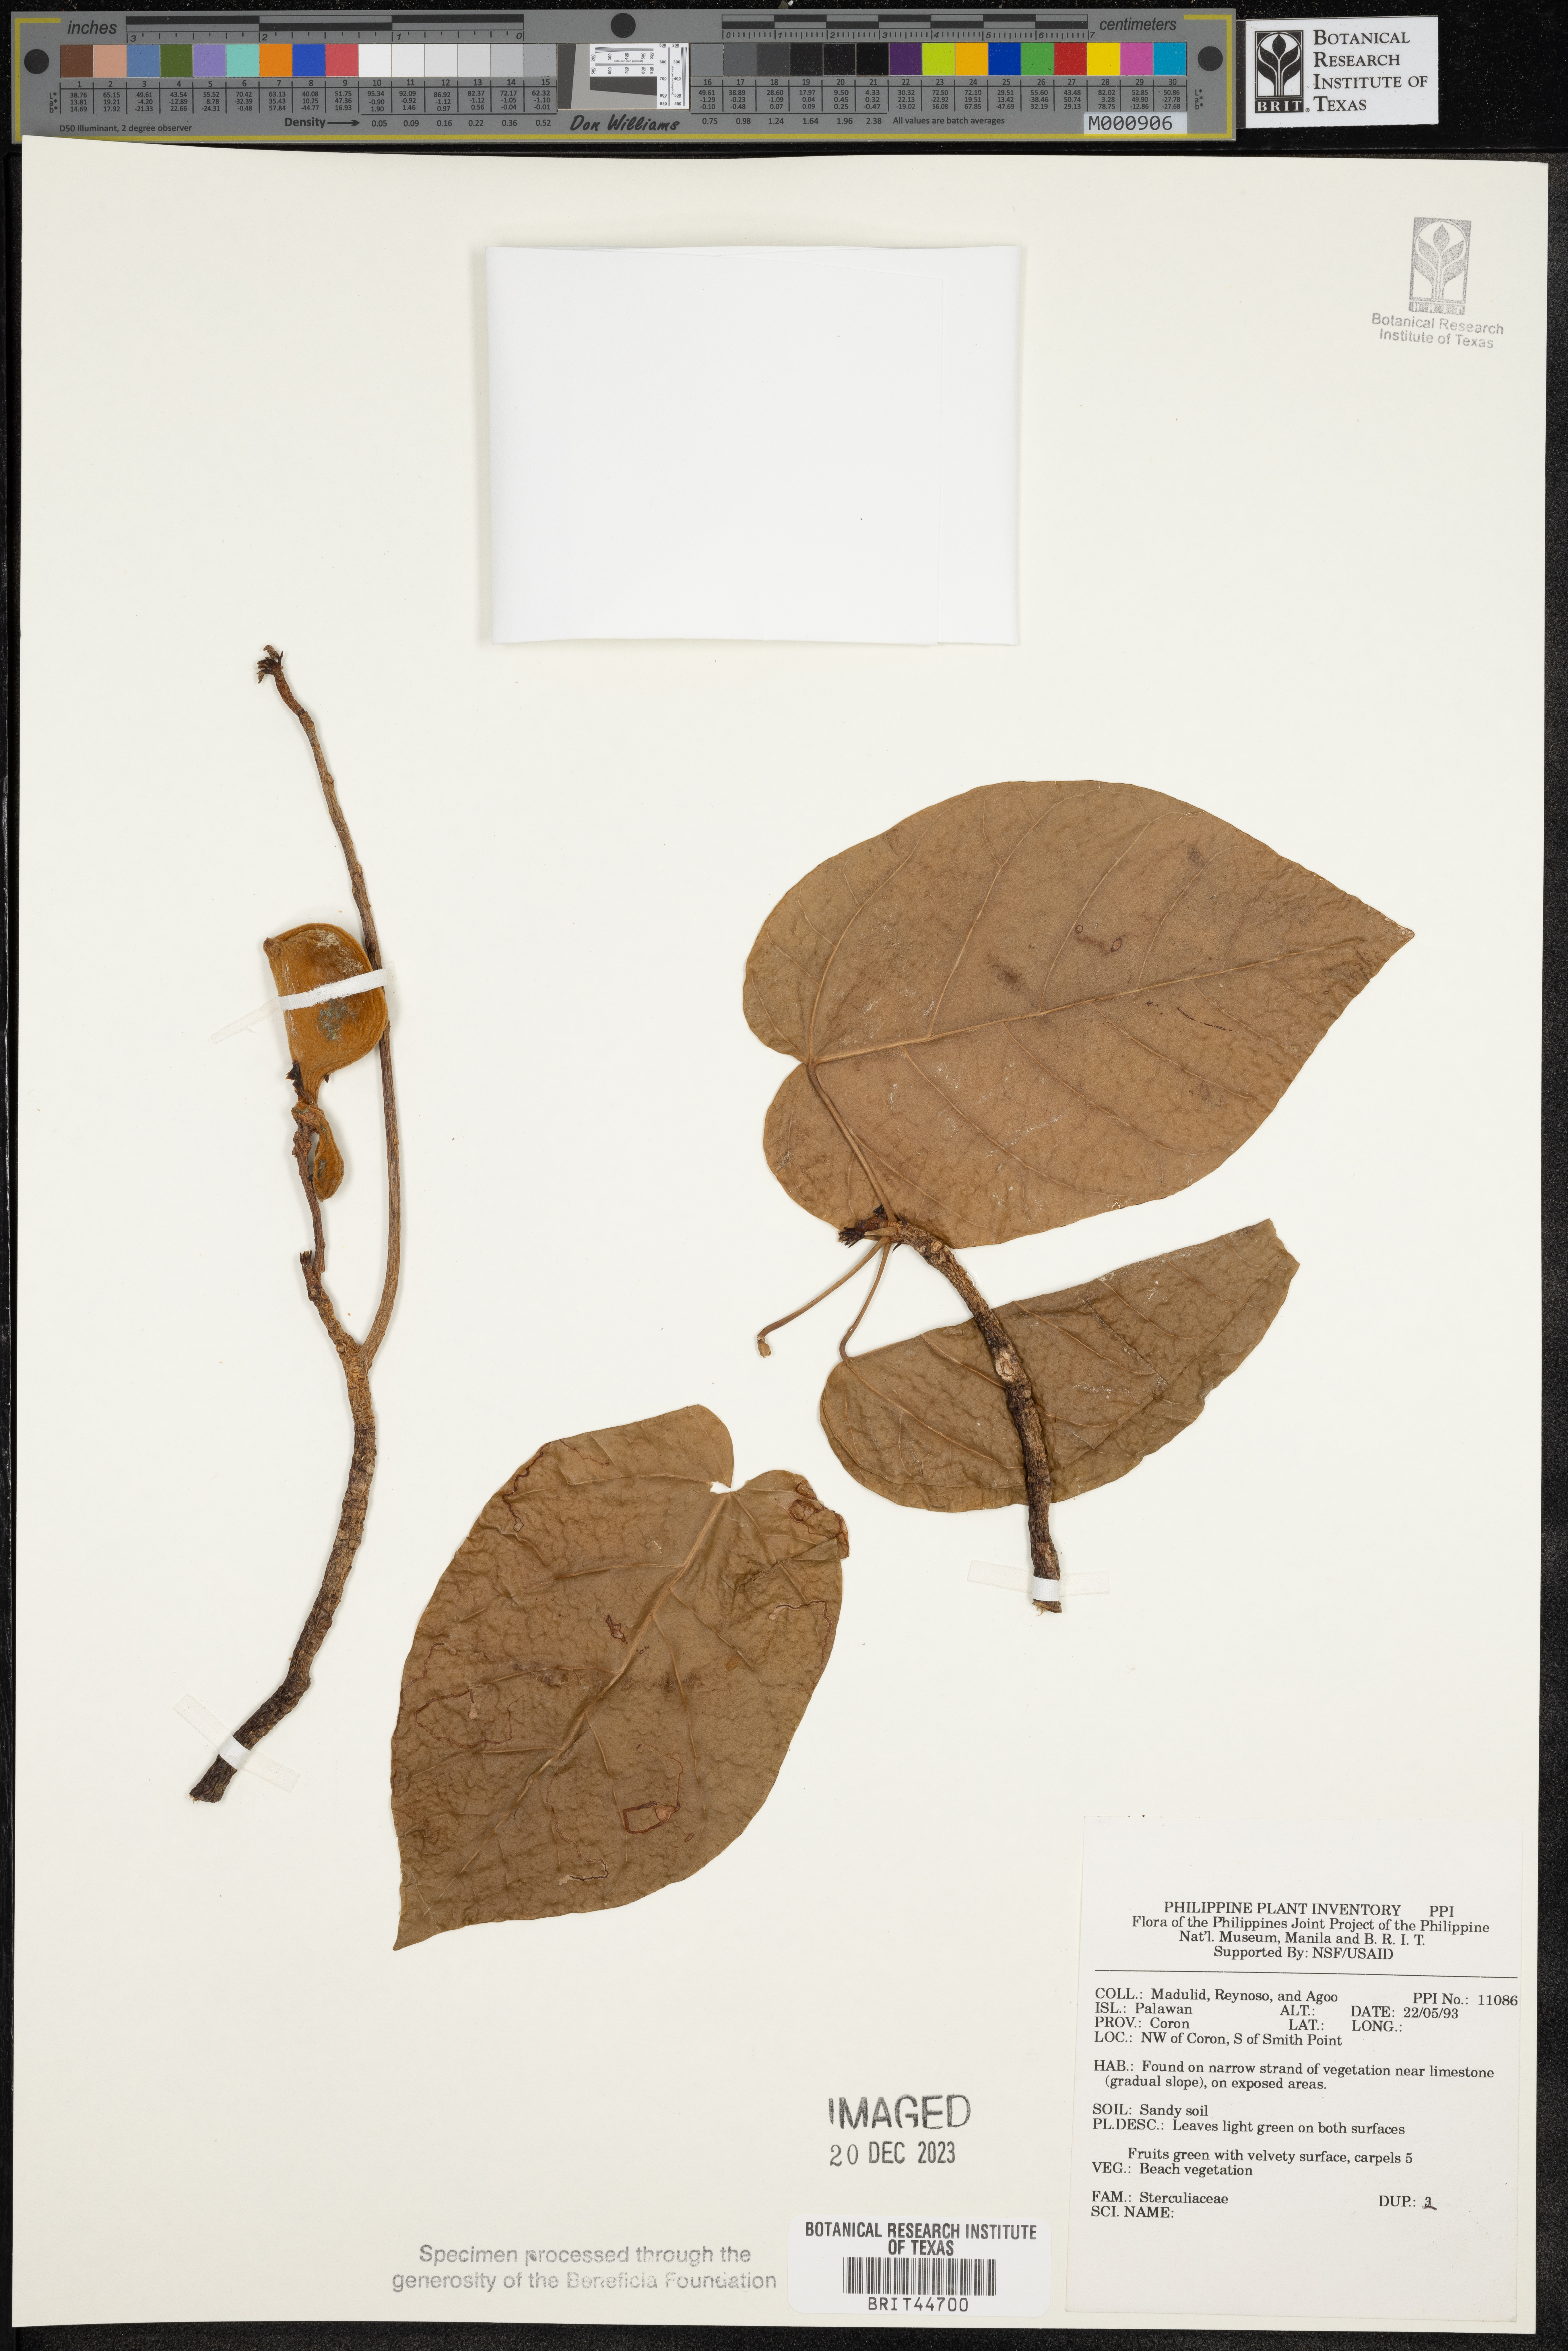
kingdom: Plantae
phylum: Tracheophyta
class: Magnoliopsida
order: Malvales
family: Sterculiaceae
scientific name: Sterculiaceae
